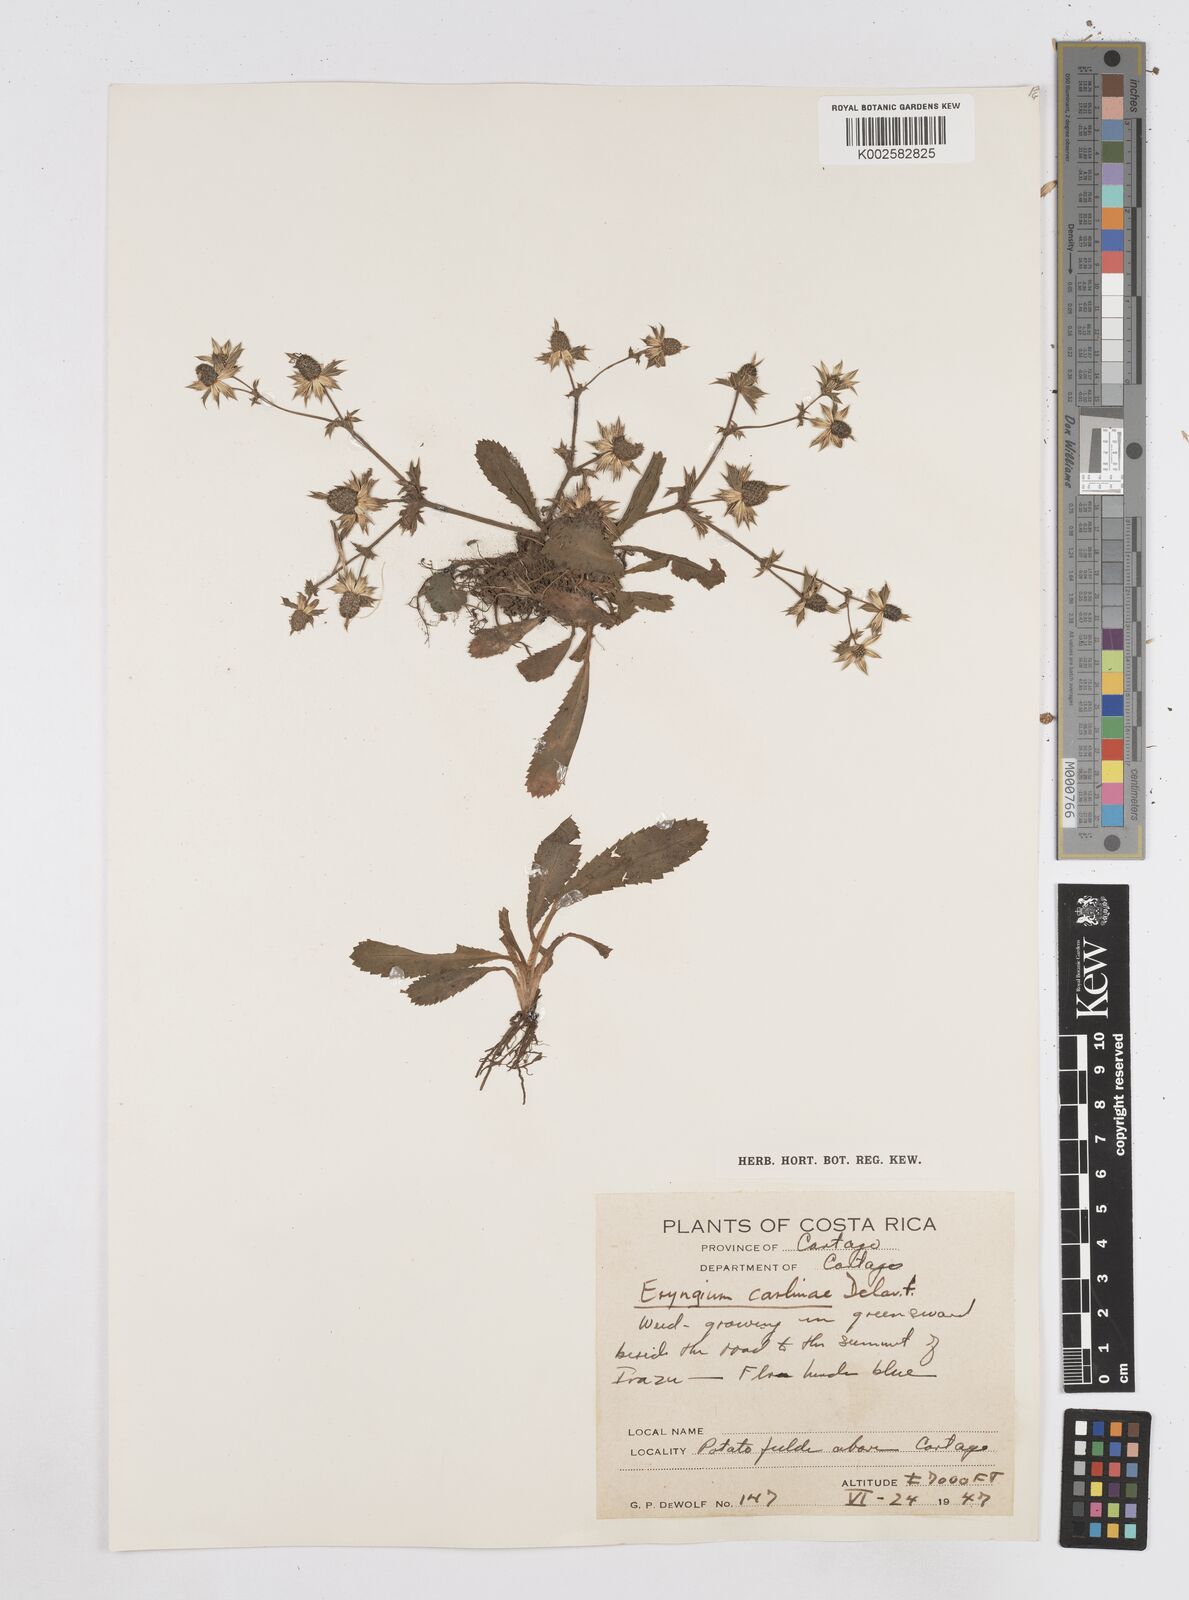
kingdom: Plantae
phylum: Tracheophyta
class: Magnoliopsida
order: Apiales
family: Apiaceae
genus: Eryngium
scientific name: Eryngium carlinae
